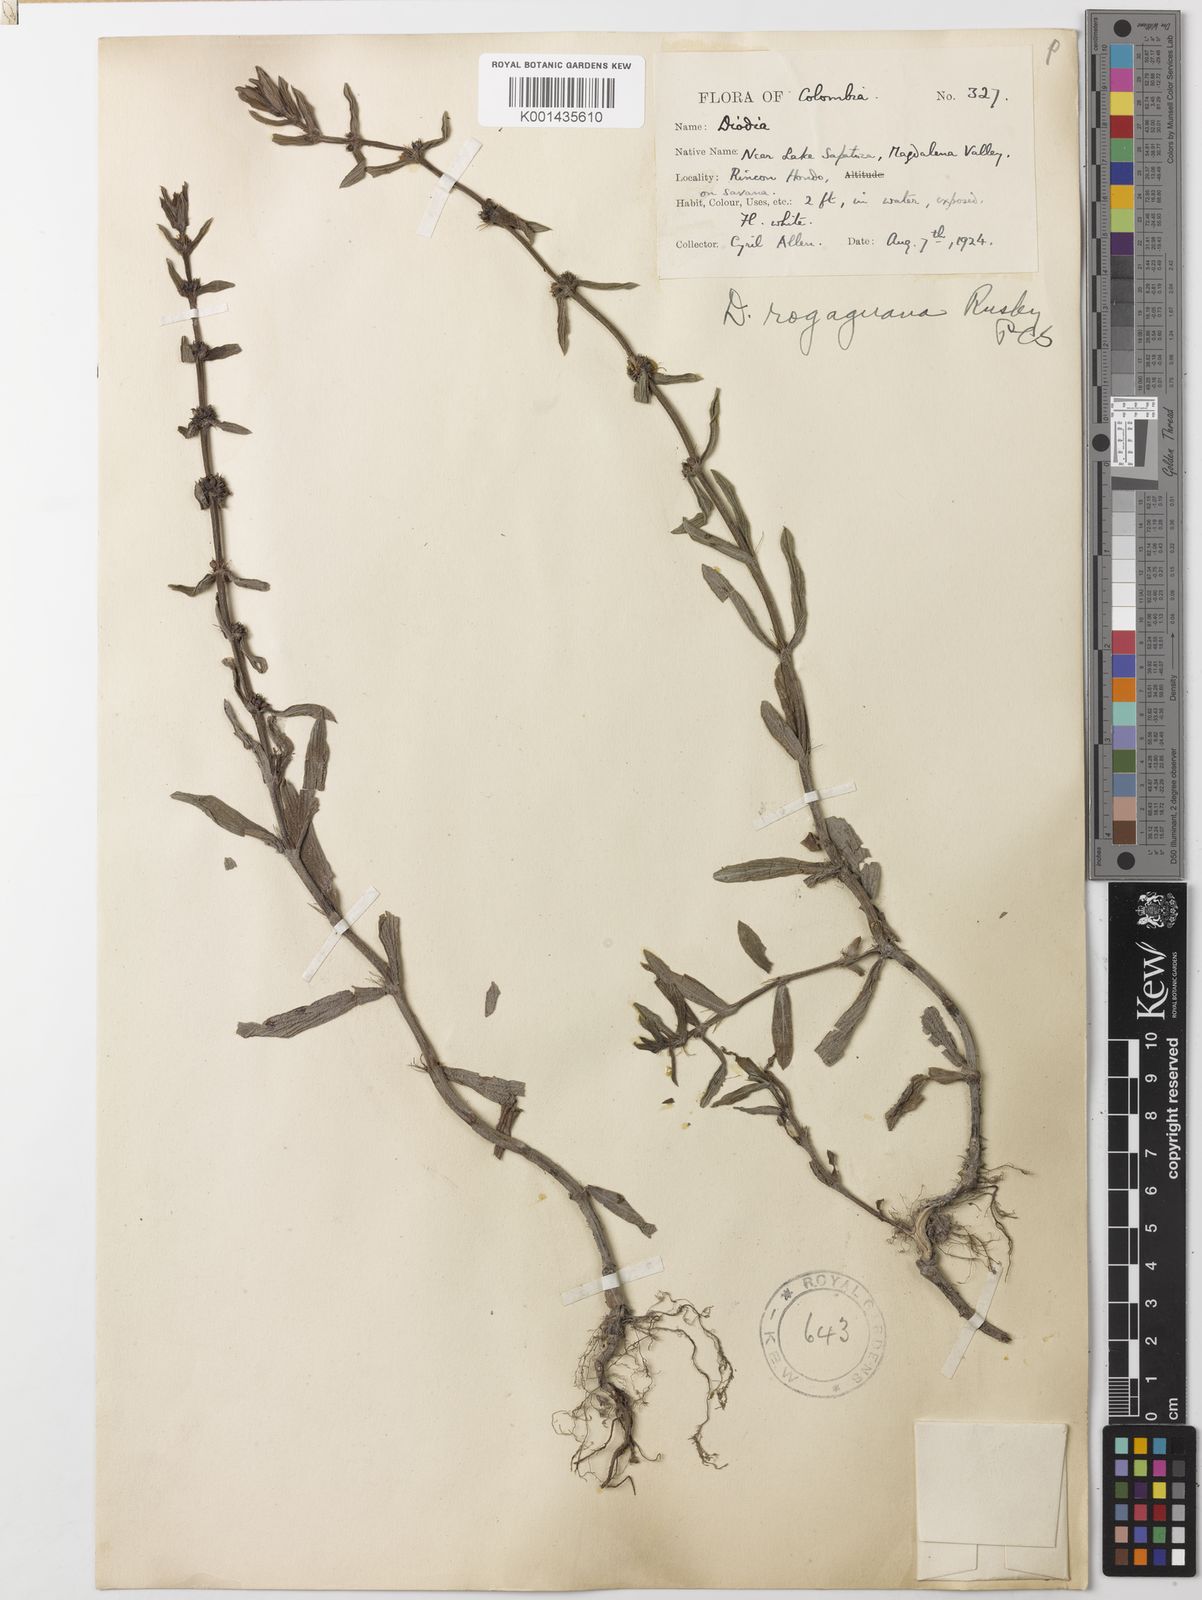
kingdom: Plantae
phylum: Tracheophyta
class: Magnoliopsida
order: Gentianales
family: Rubiaceae
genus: Spermacoce
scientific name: Spermacoce multiflora
